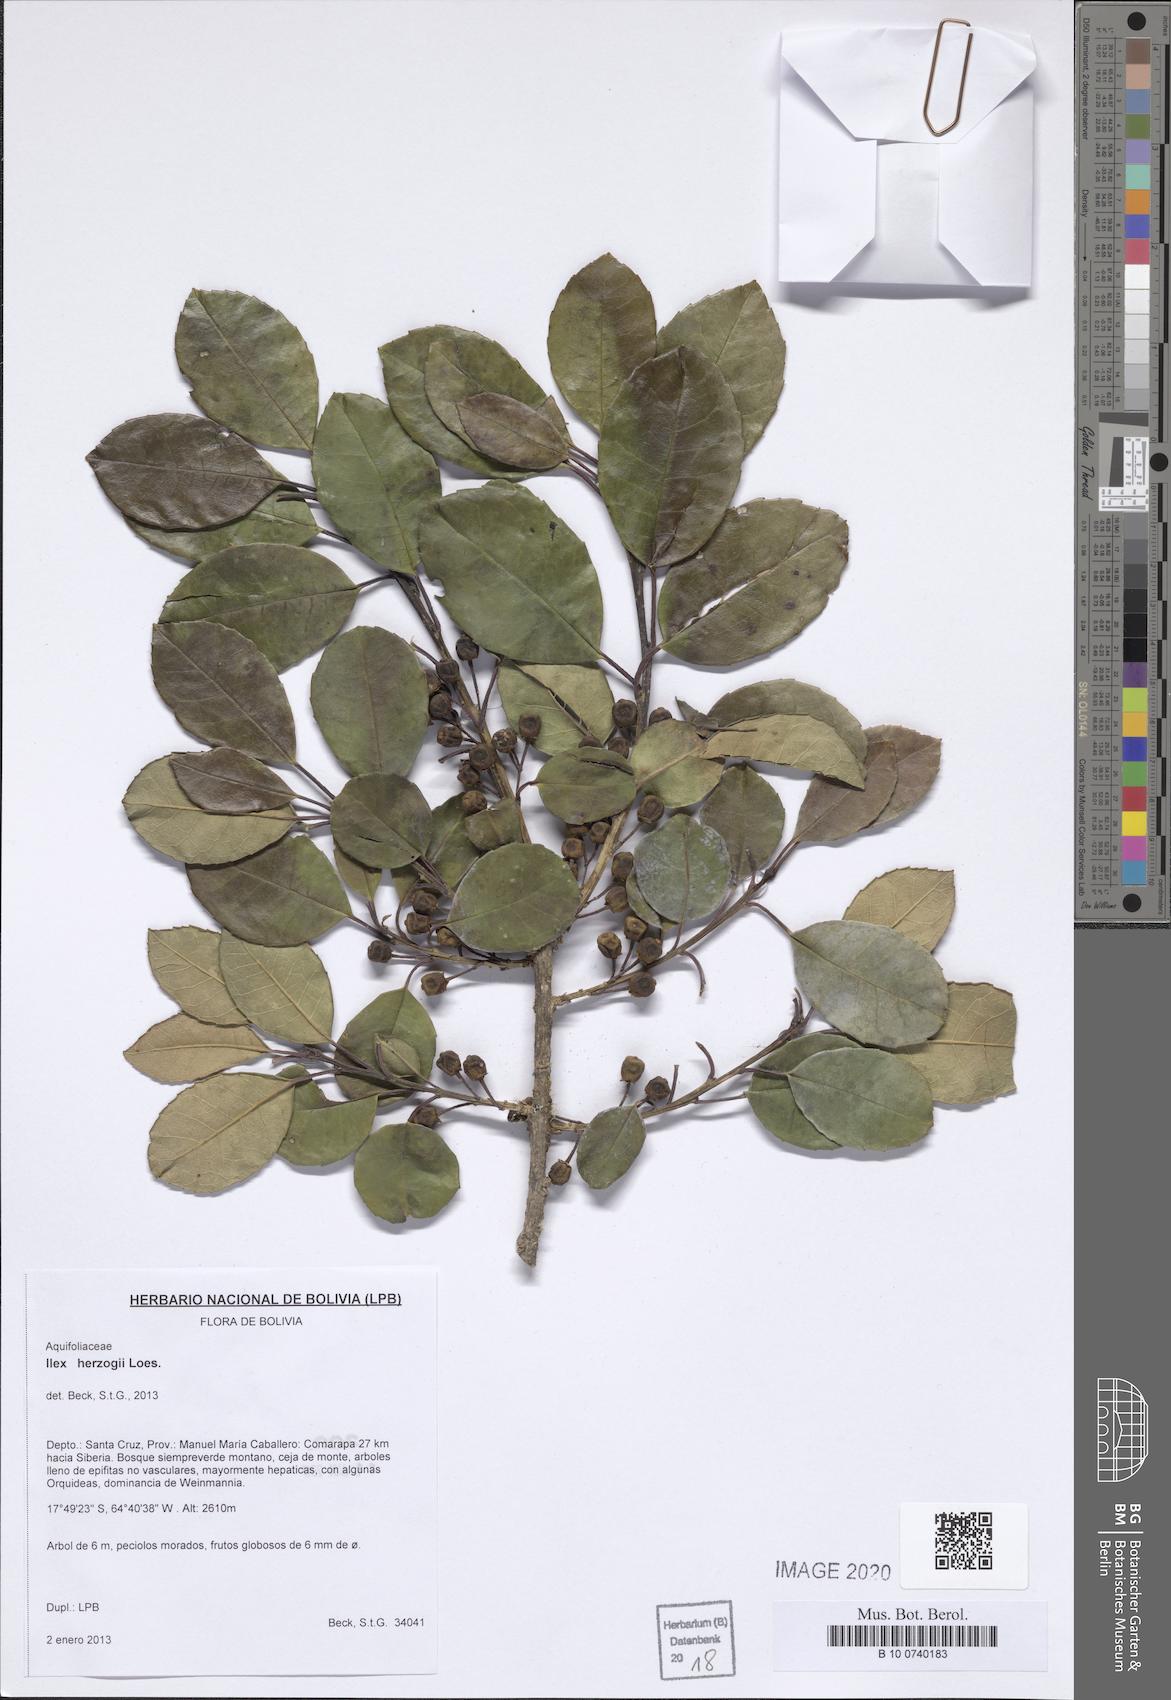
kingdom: Plantae
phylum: Tracheophyta
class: Magnoliopsida
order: Aquifoliales
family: Aquifoliaceae
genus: Ilex
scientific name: Ilex argentina
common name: Argentina holly
